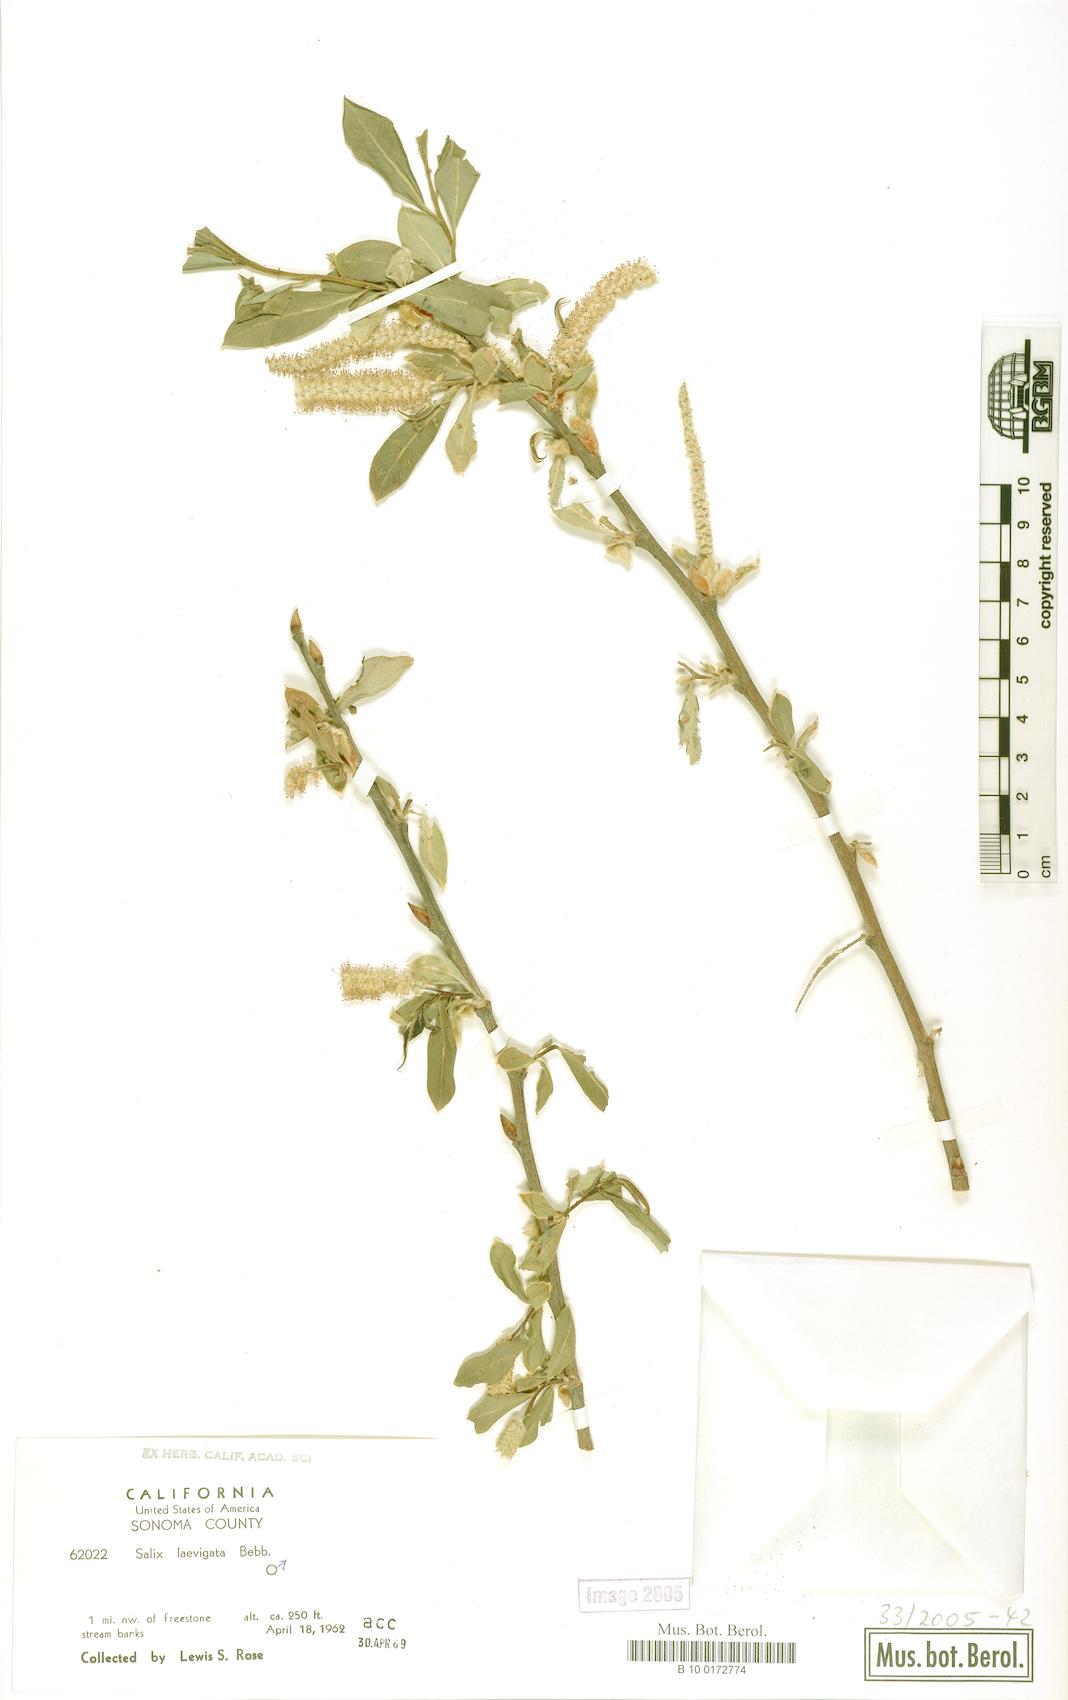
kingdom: Plantae
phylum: Tracheophyta
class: Magnoliopsida
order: Malpighiales
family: Salicaceae
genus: Salix
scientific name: Salix laevigata
